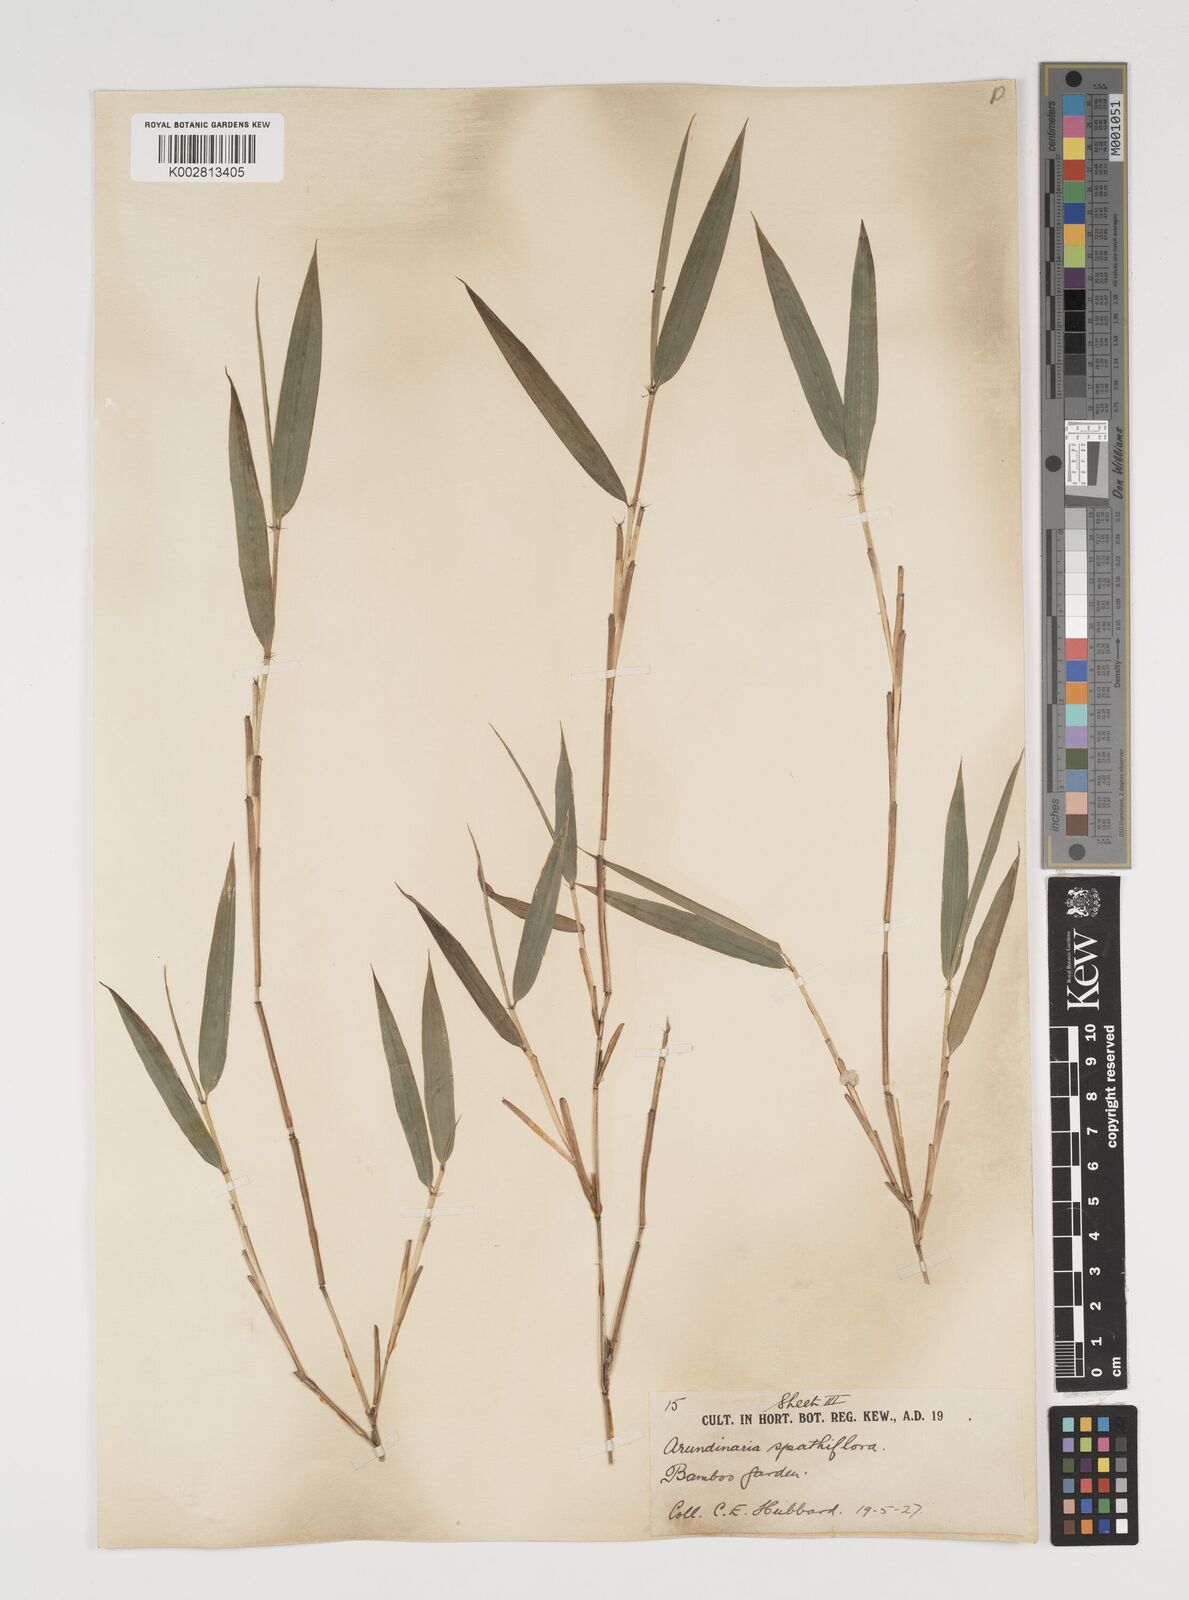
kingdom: Plantae
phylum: Tracheophyta
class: Liliopsida
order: Poales
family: Poaceae
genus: Thamnocalamus
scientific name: Thamnocalamus spathiflorus
